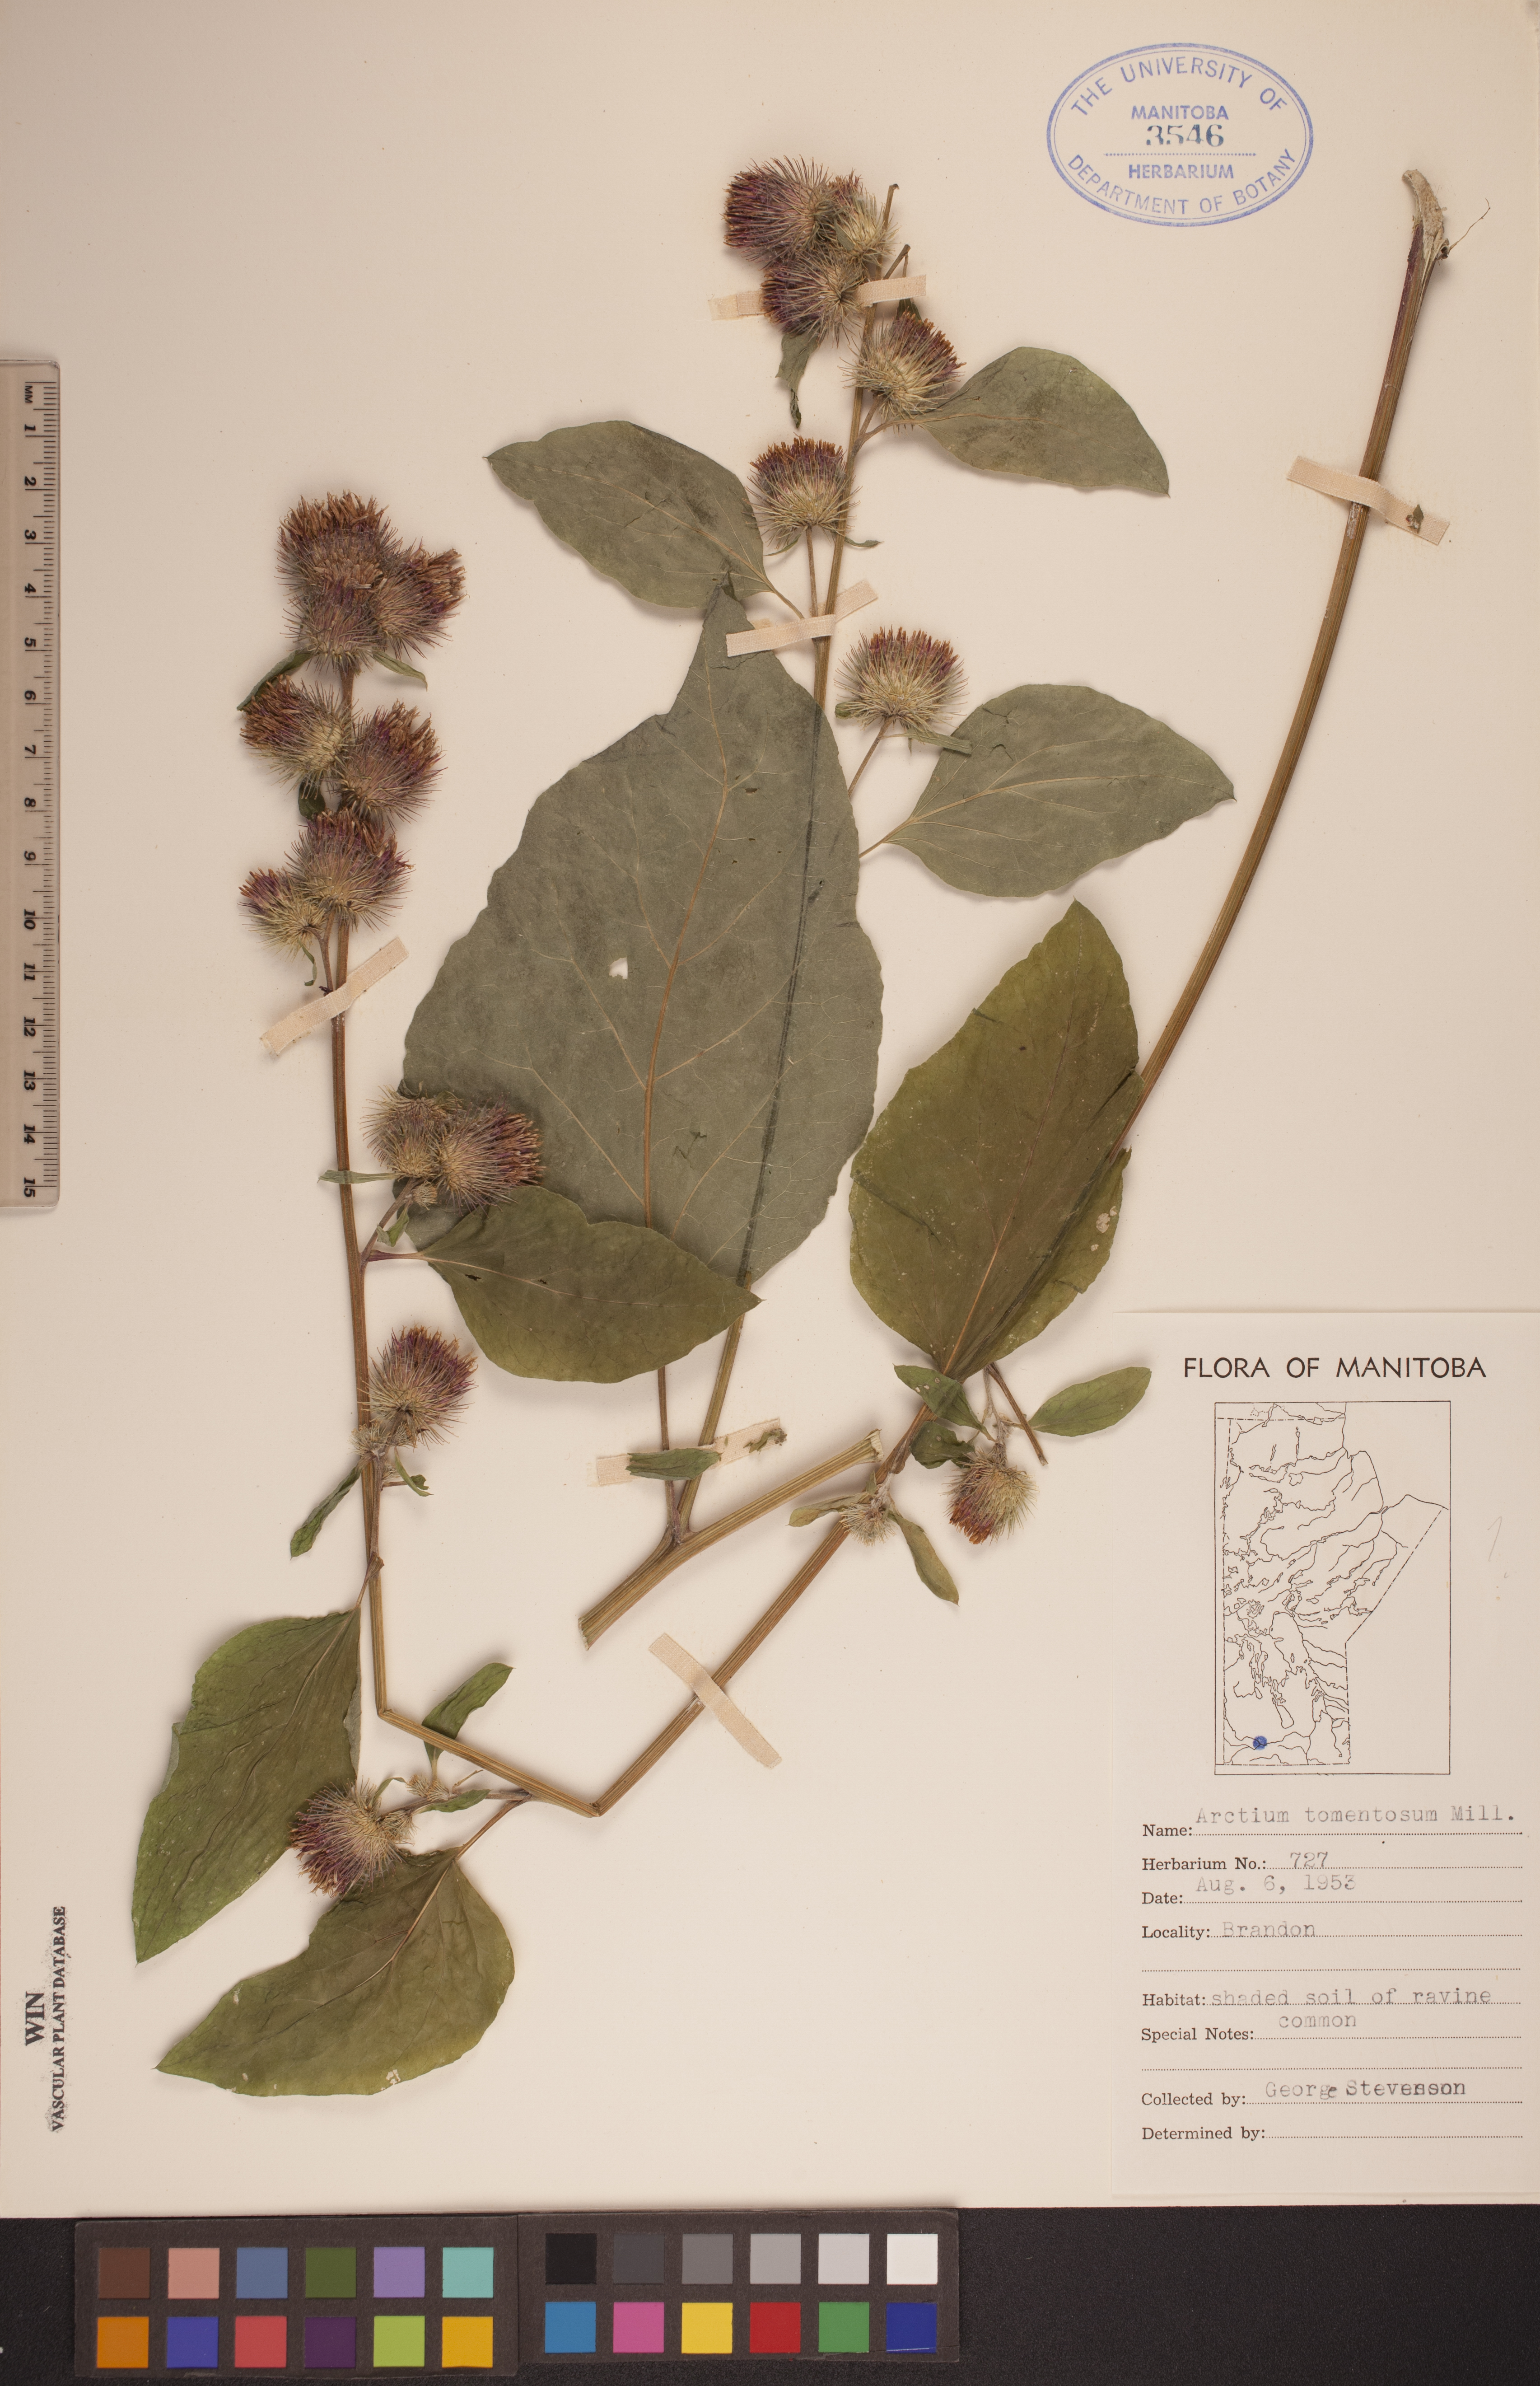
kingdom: Plantae
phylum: Tracheophyta
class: Magnoliopsida
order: Asterales
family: Asteraceae
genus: Arctium
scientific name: Arctium tomentosum
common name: Woolly burdock
